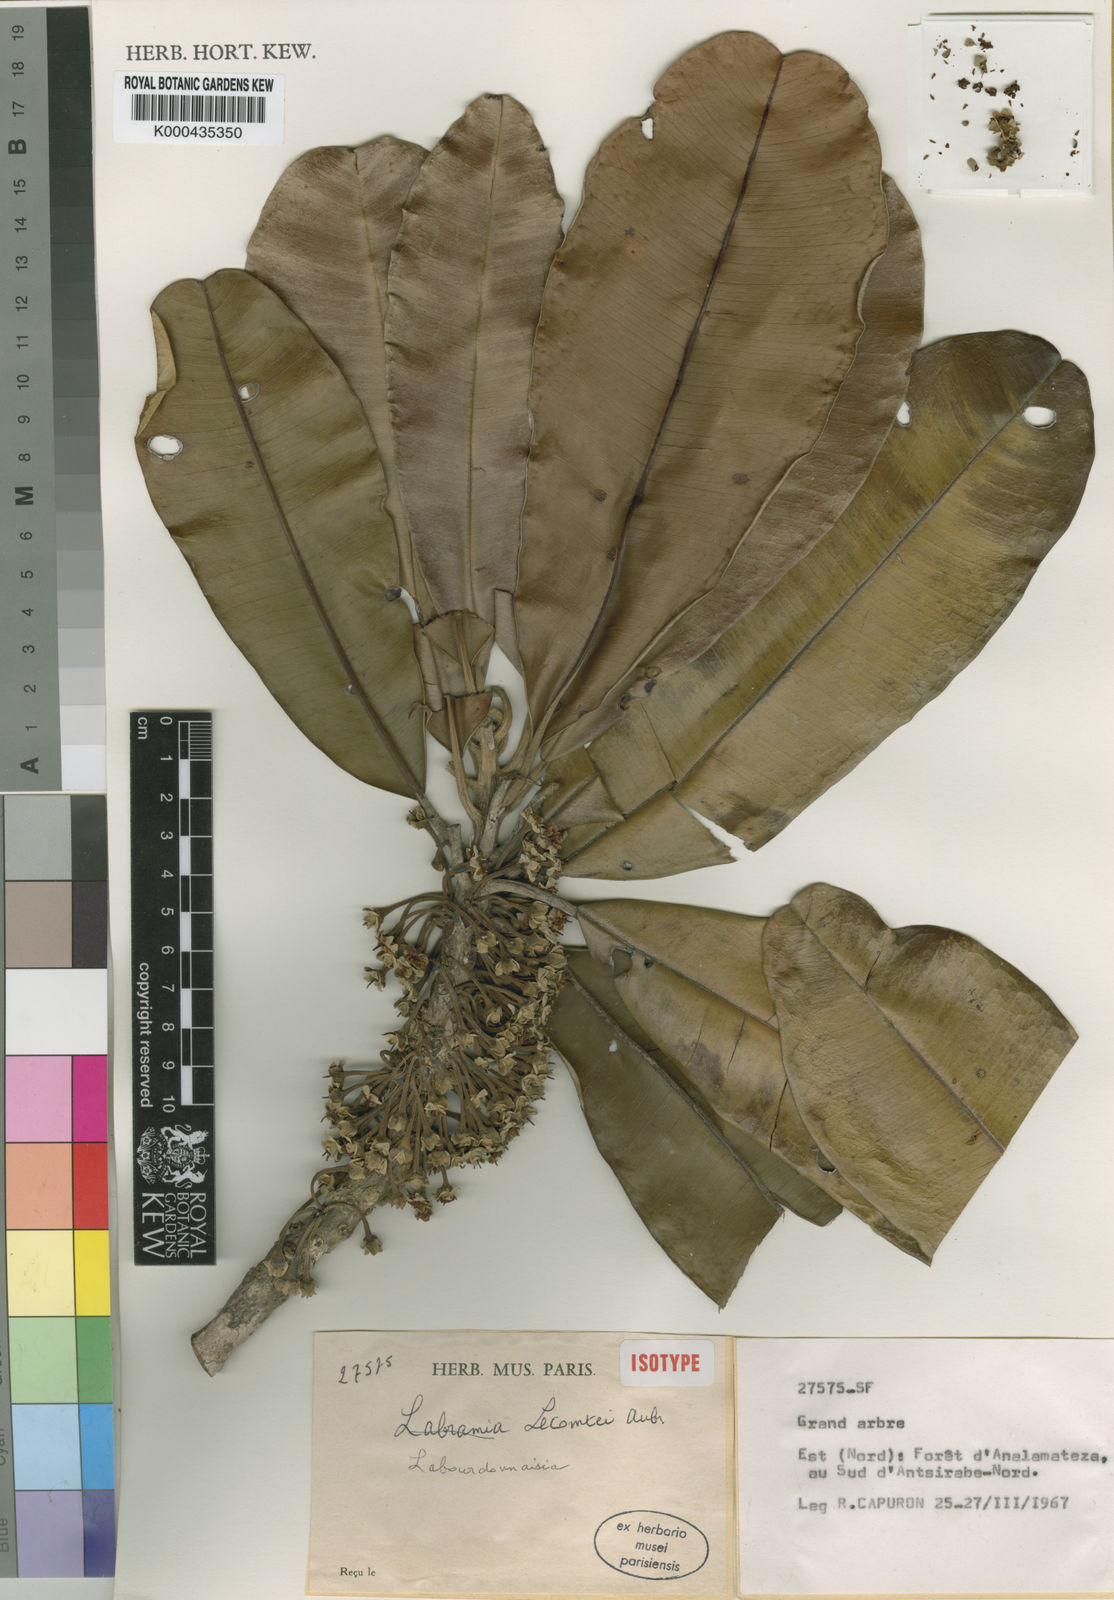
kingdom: Plantae
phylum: Tracheophyta
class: Magnoliopsida
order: Ericales
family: Sapotaceae
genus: Labourdonnaisia
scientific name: Labourdonnaisia
